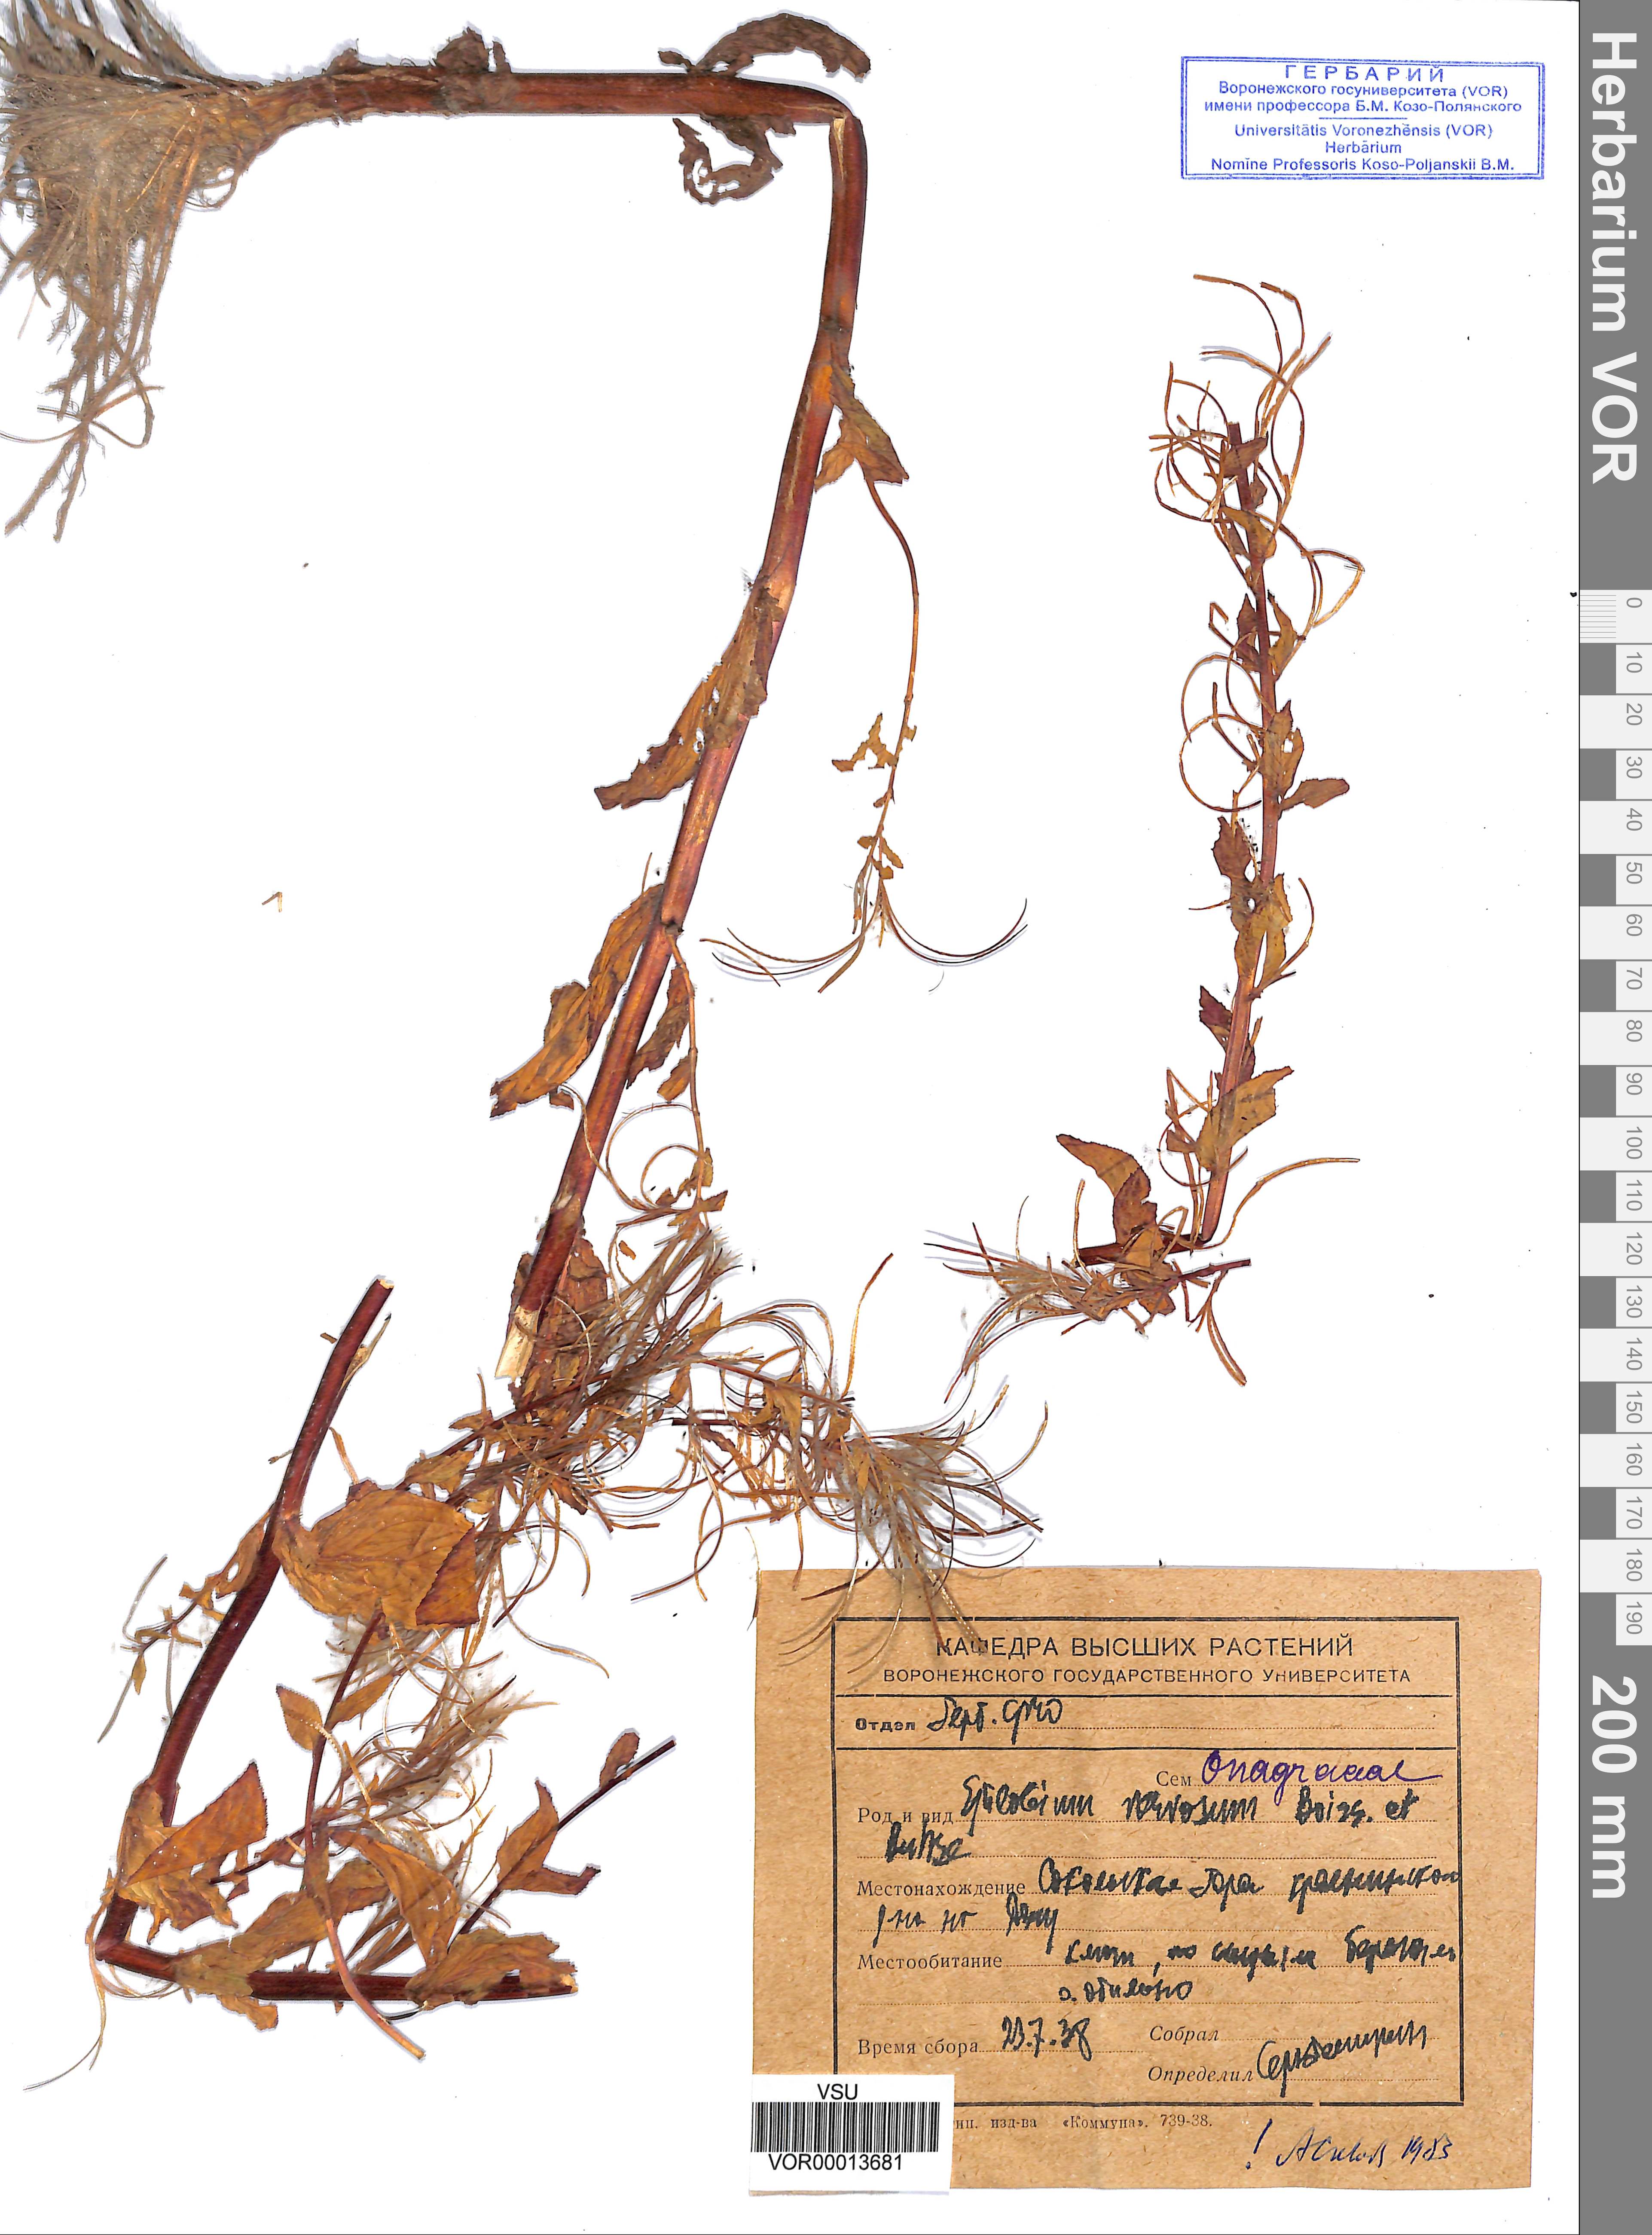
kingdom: Plantae
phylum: Tracheophyta
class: Magnoliopsida
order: Myrtales
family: Onagraceae
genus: Epilobium
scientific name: Epilobium roseum
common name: Pale willowherb
